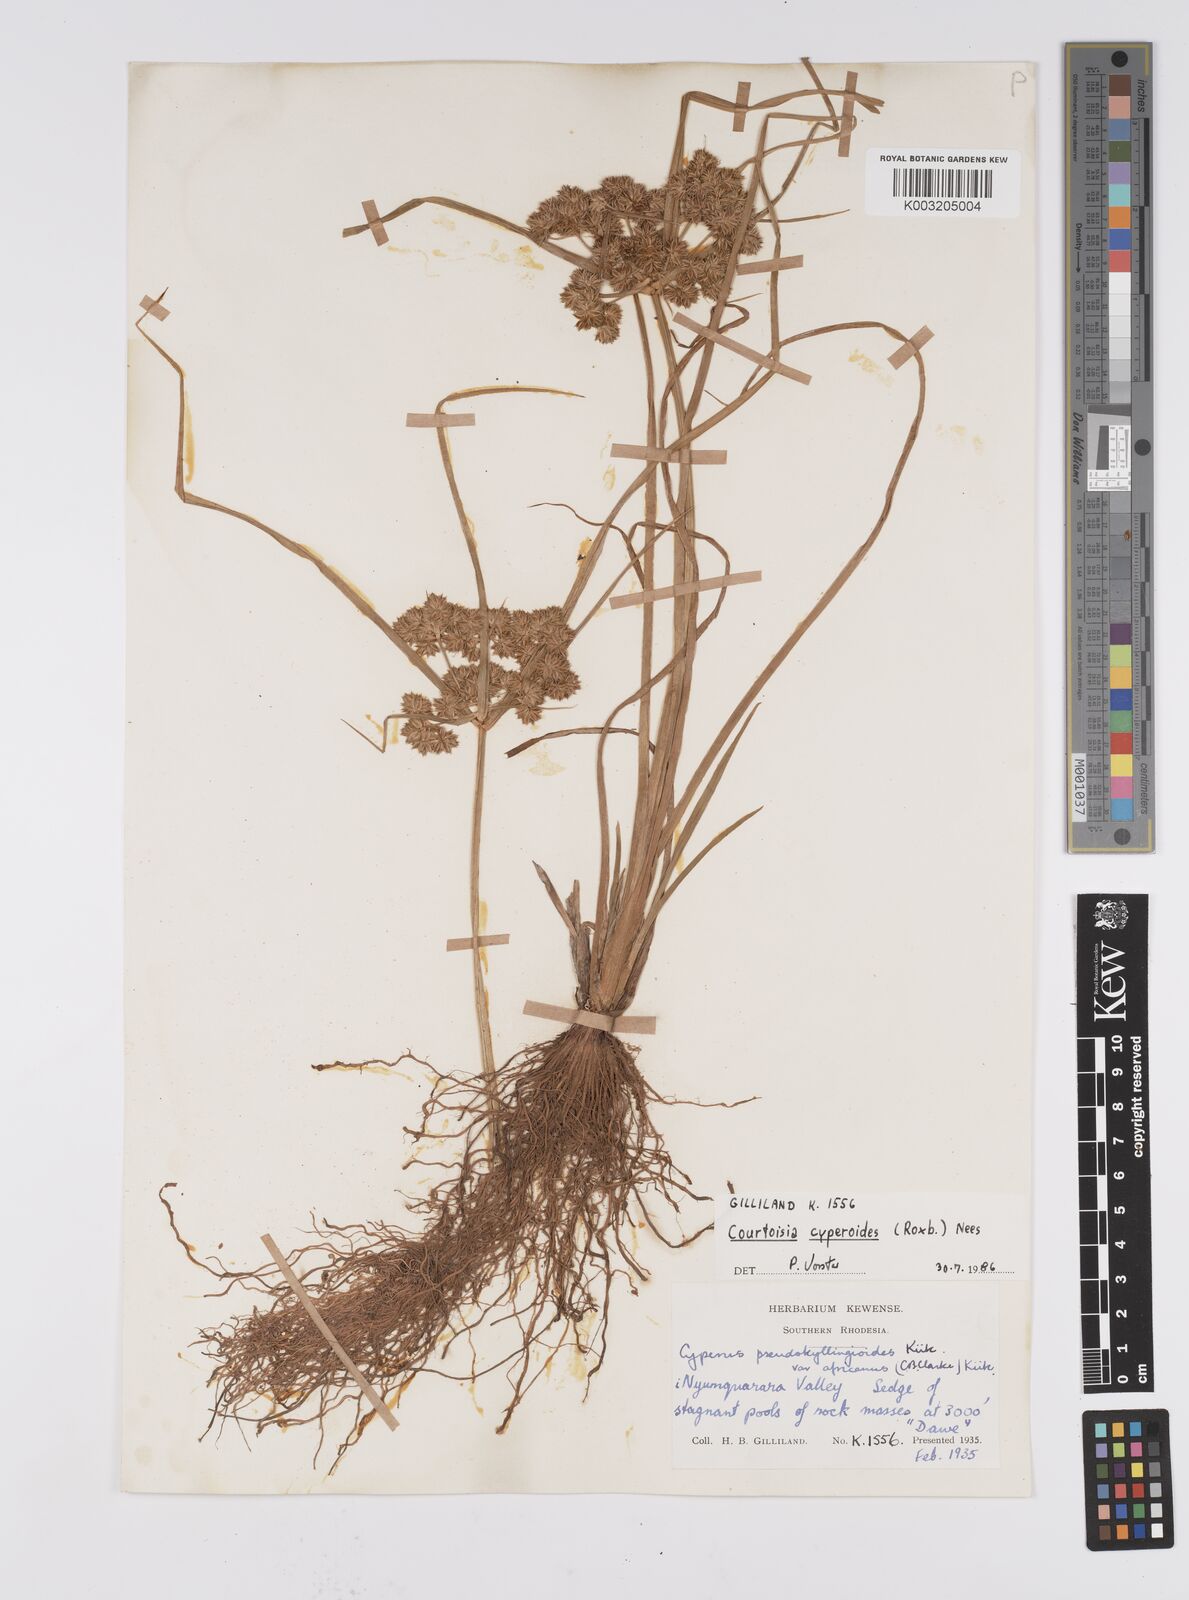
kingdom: Plantae
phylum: Tracheophyta
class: Liliopsida
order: Poales
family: Cyperaceae
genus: Cyperus
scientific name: Cyperus cyperoides
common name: Pacific island flat sedge
